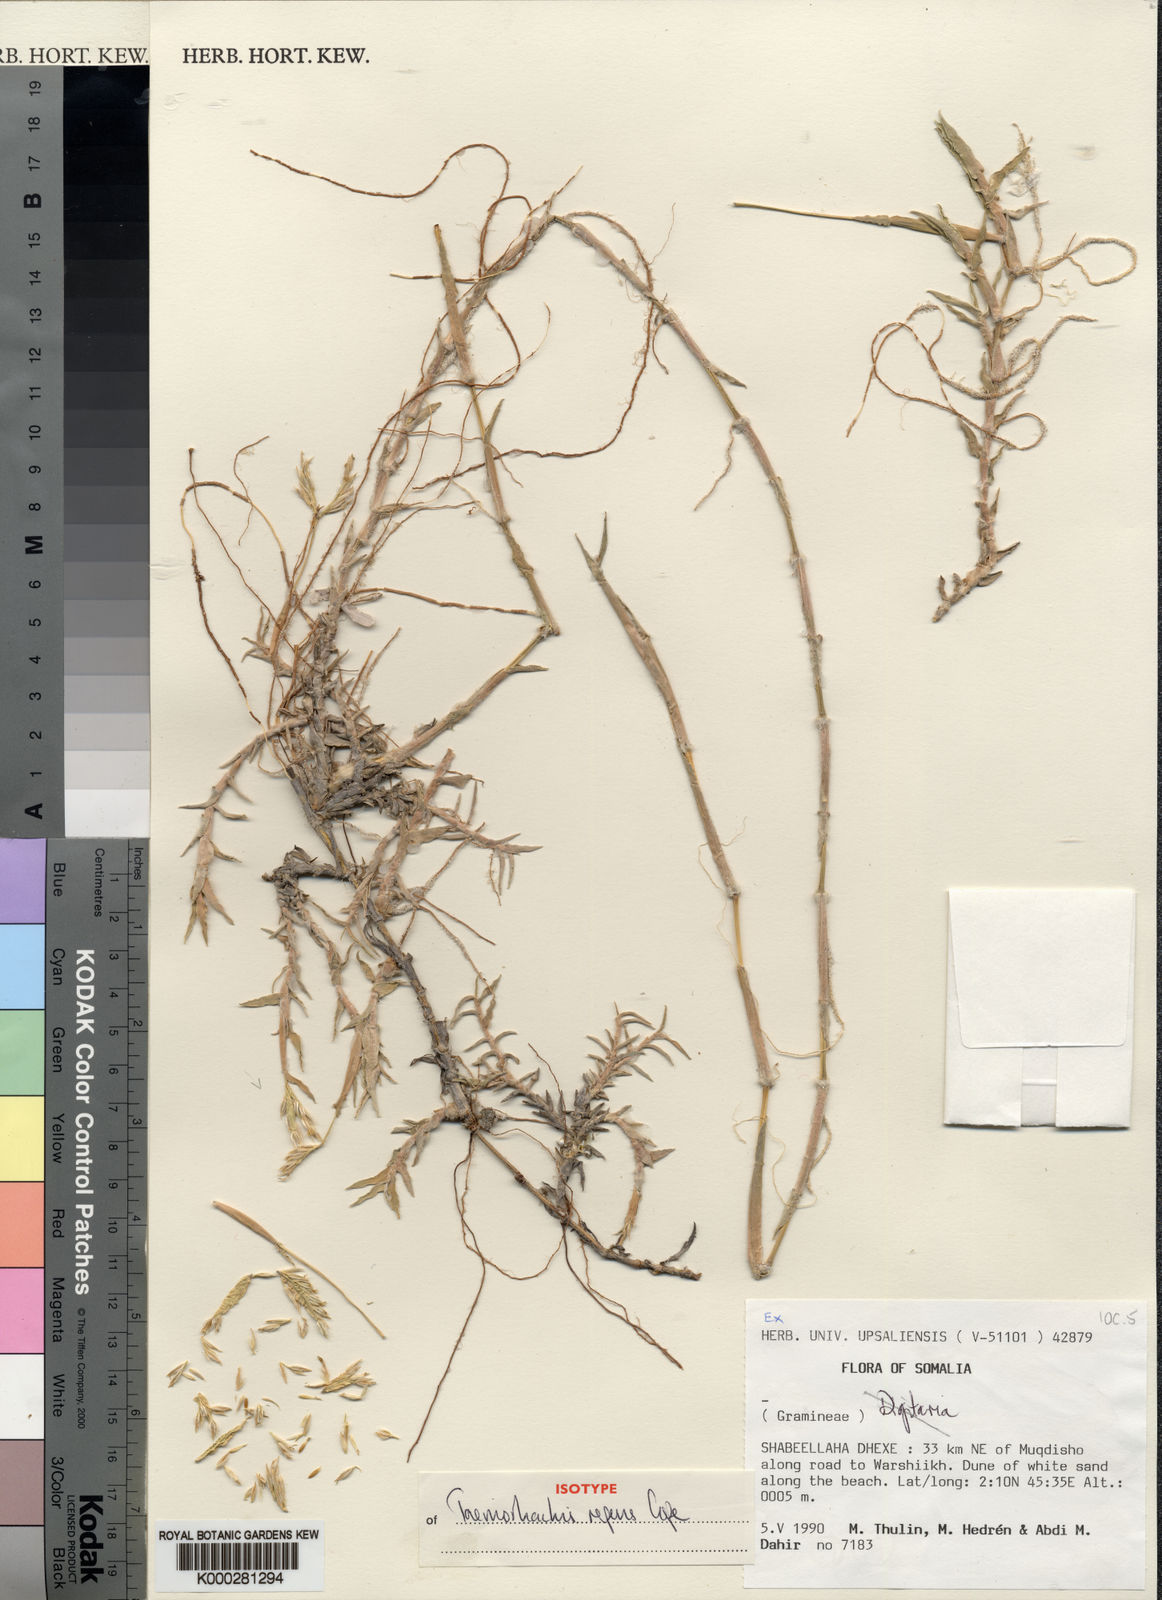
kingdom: Plantae
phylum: Tracheophyta
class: Liliopsida
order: Poales
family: Poaceae
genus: Taeniorhachis
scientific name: Taeniorhachis repens
